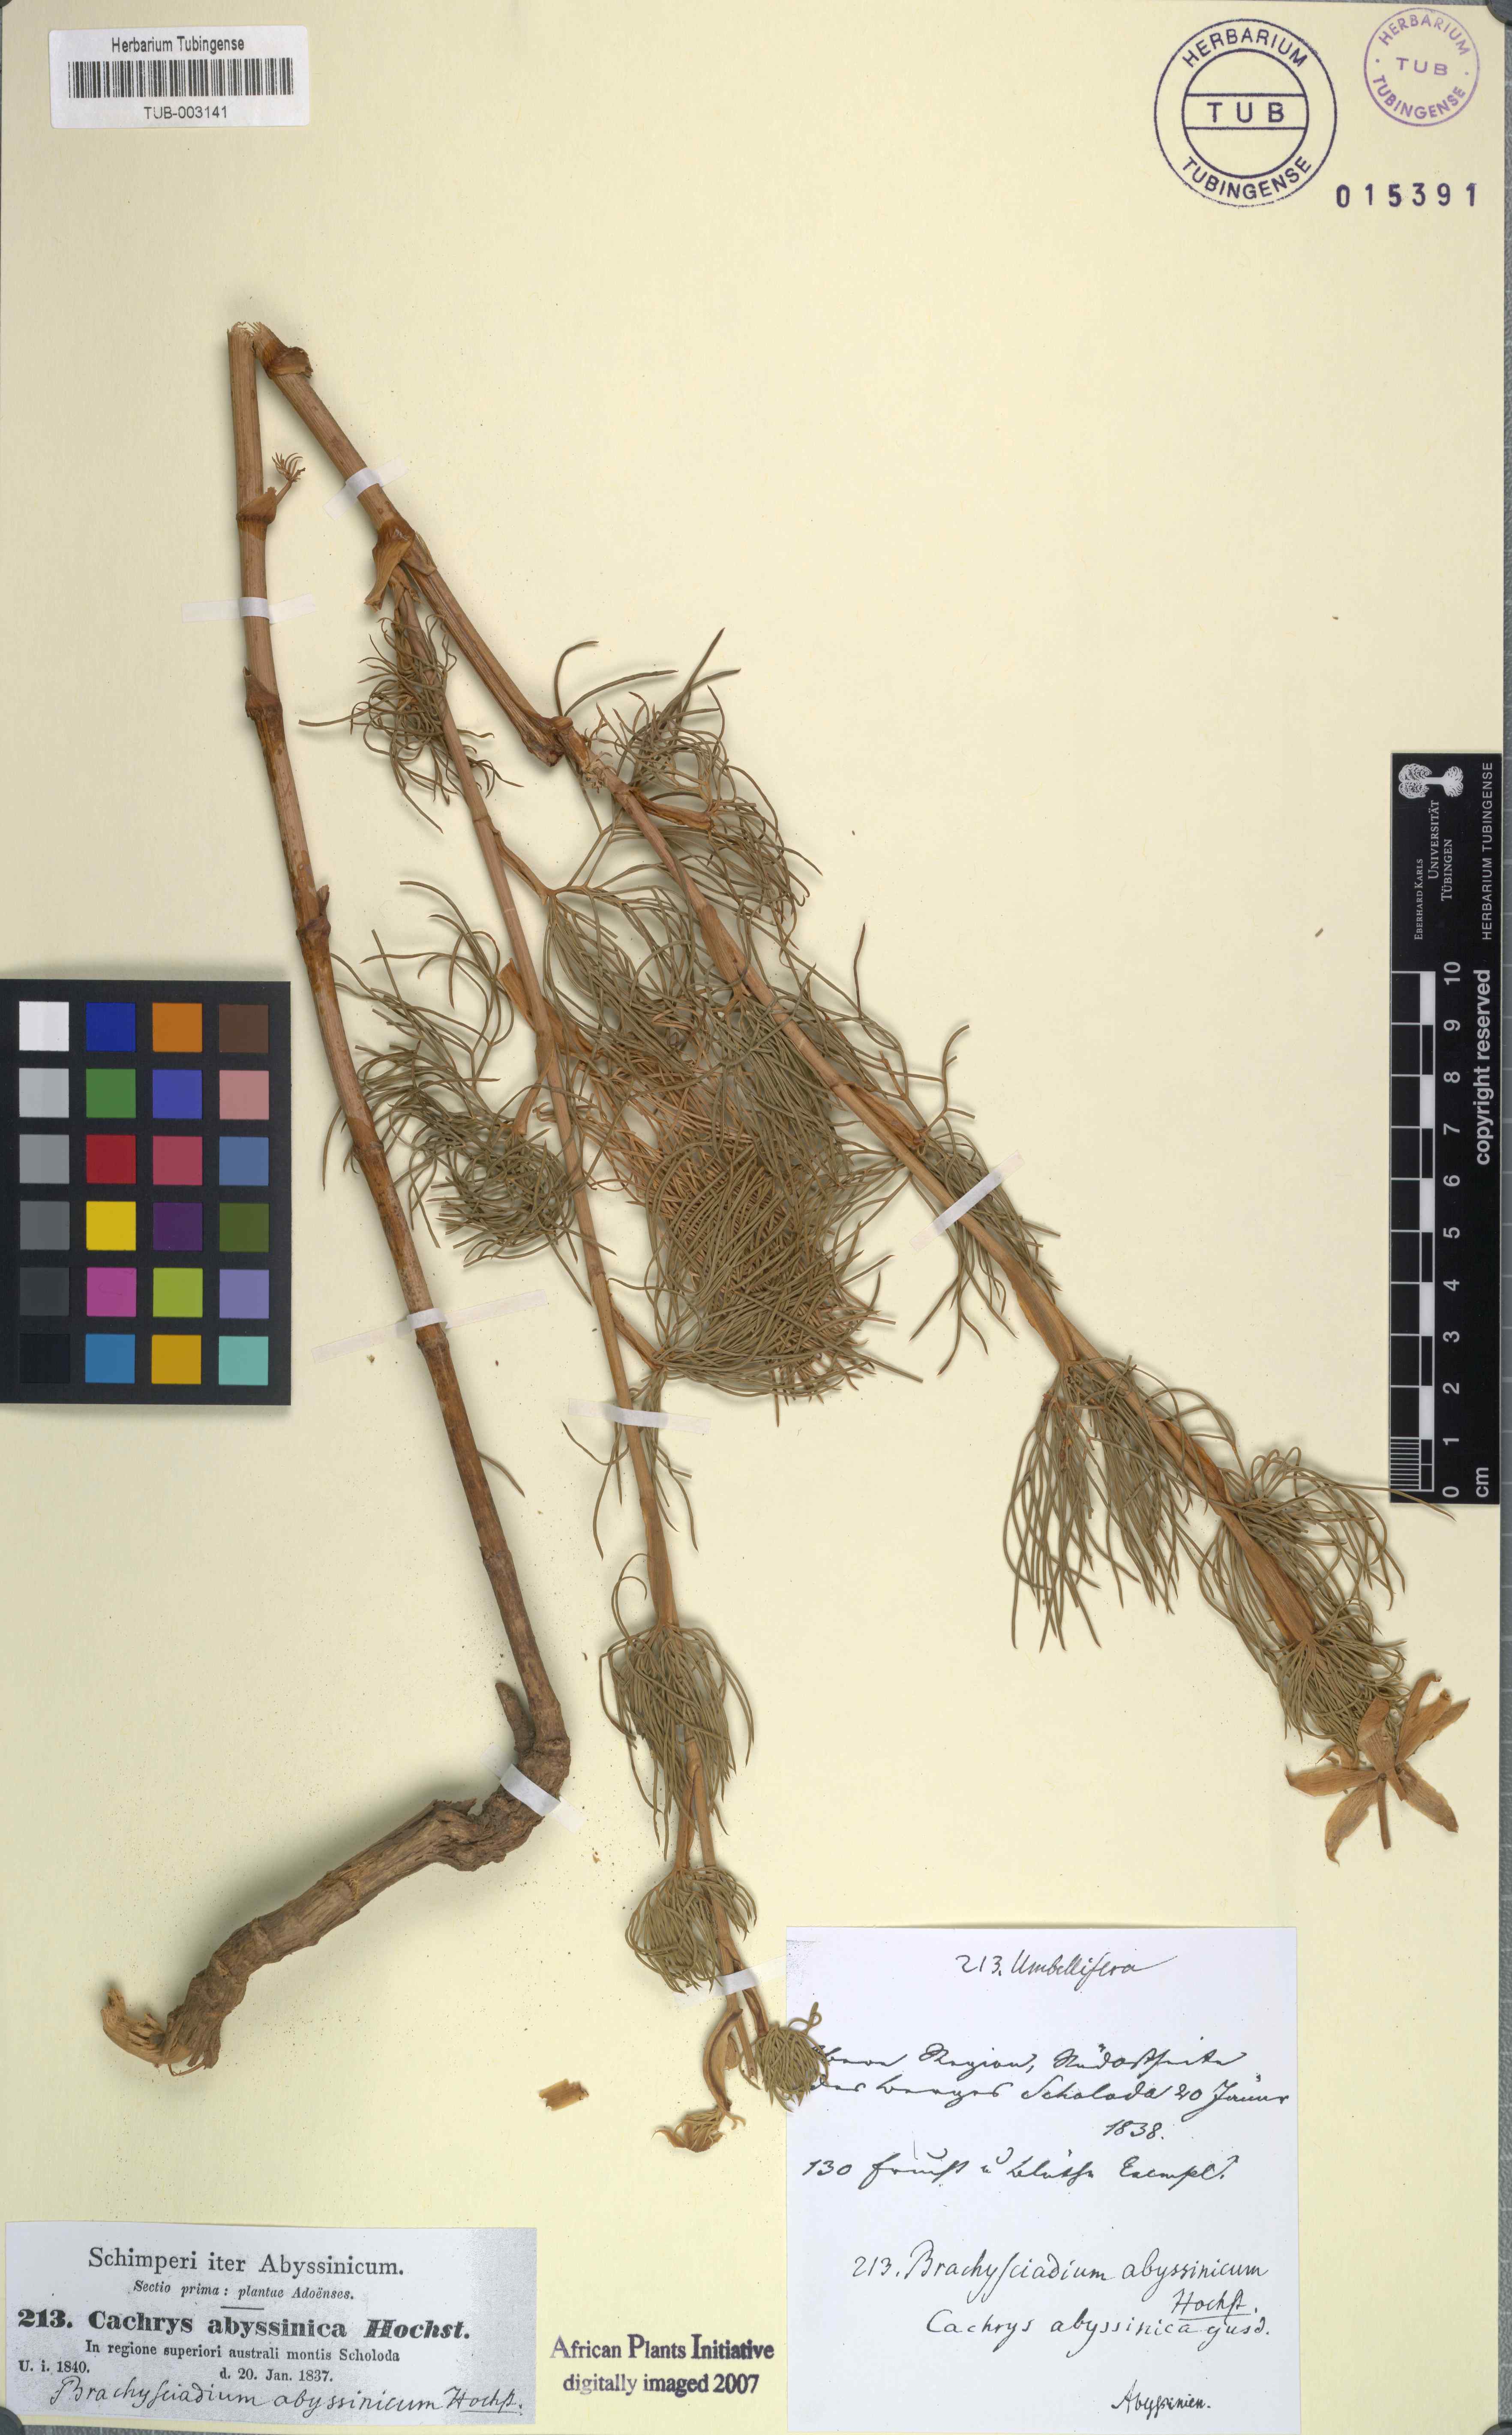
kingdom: Plantae
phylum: Tracheophyta
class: Magnoliopsida
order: Apiales
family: Apiaceae
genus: Diplolophium
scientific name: Diplolophium africanum
